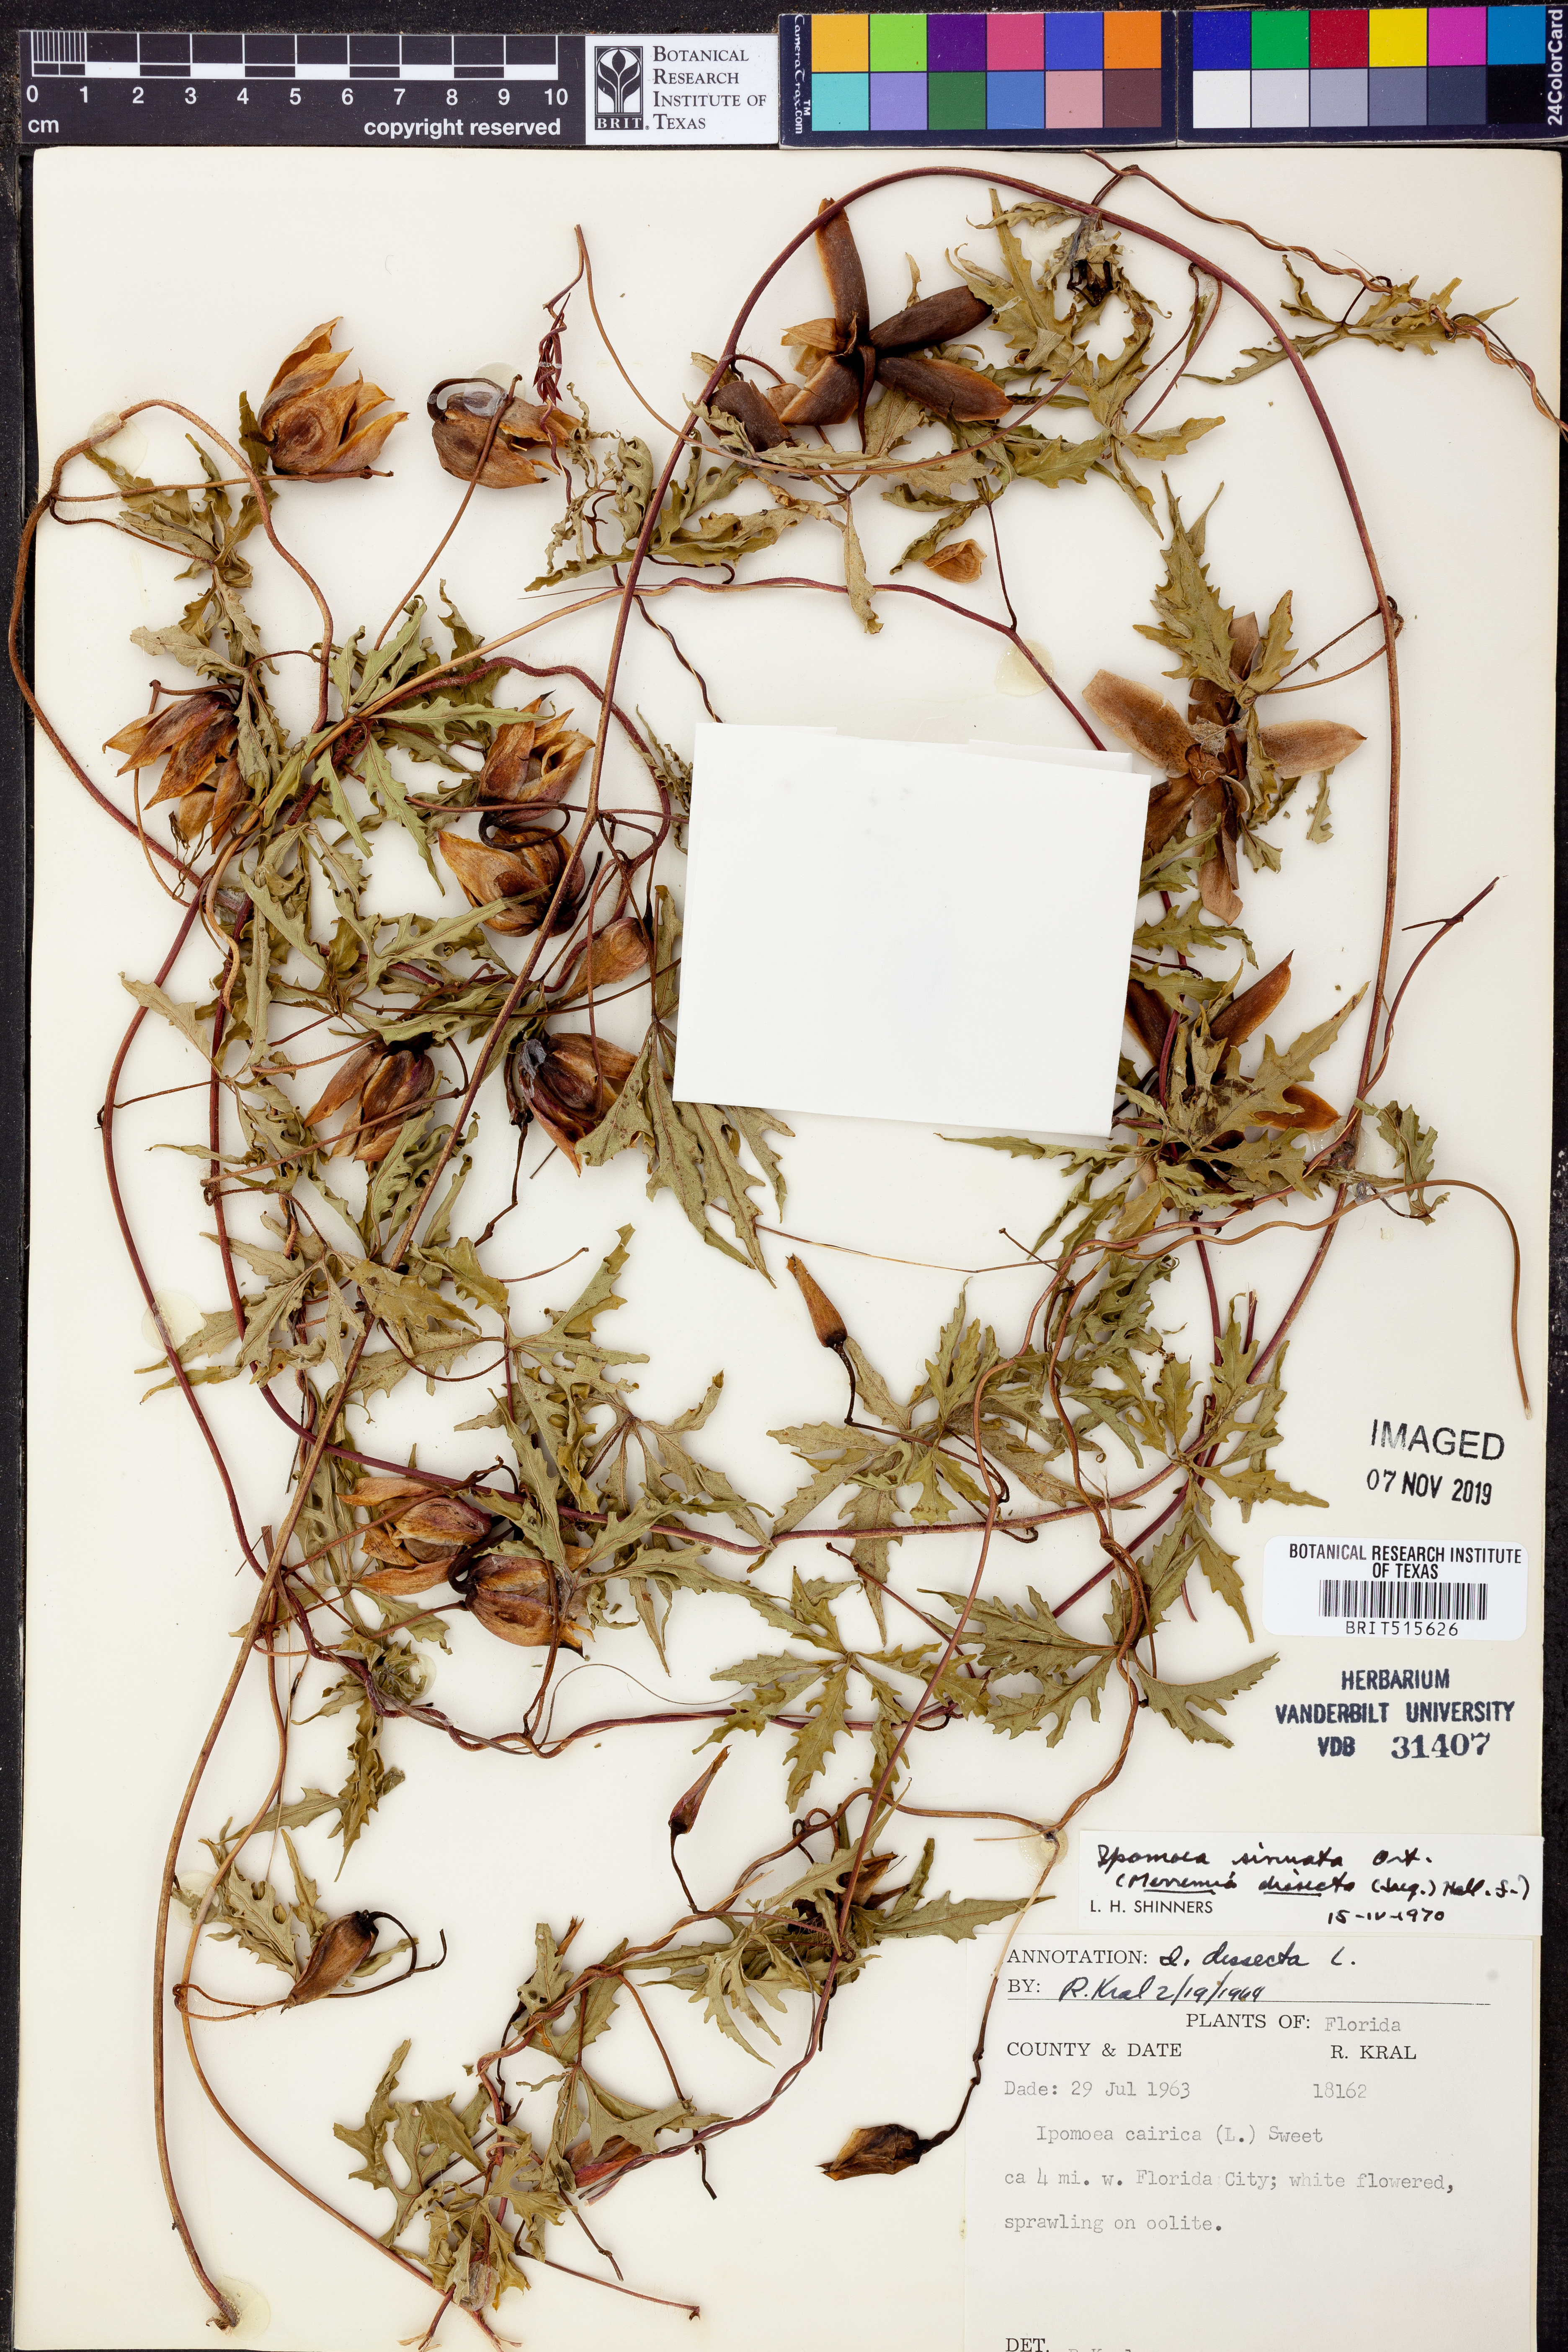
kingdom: Plantae
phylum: Tracheophyta
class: Magnoliopsida
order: Solanales
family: Convolvulaceae
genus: Distimake
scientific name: Distimake dissectus
